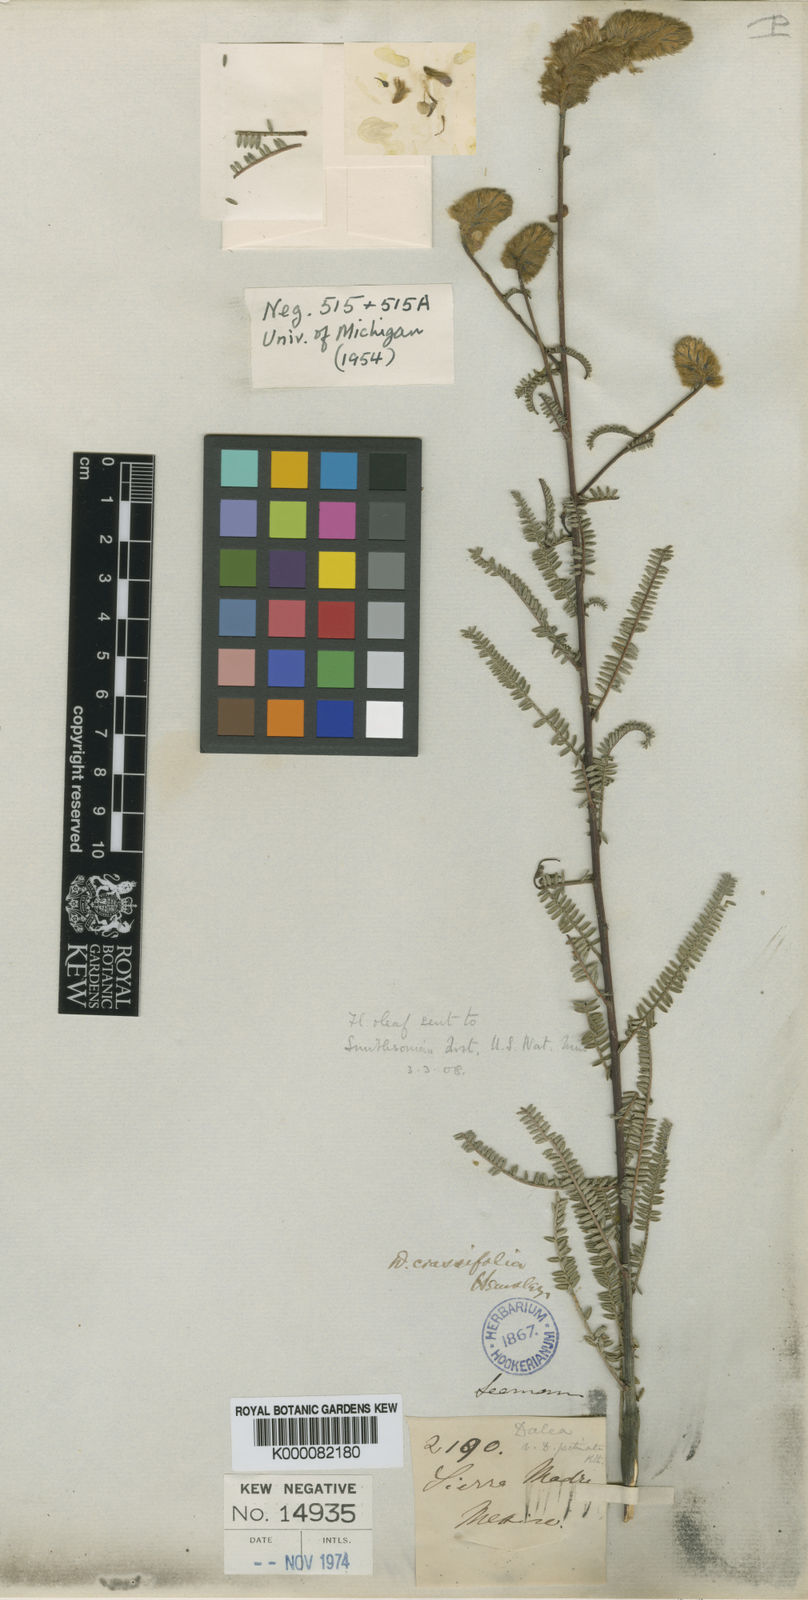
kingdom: Plantae
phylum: Tracheophyta
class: Magnoliopsida
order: Fabales
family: Fabaceae
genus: Dalea
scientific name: Dalea crassifolia
